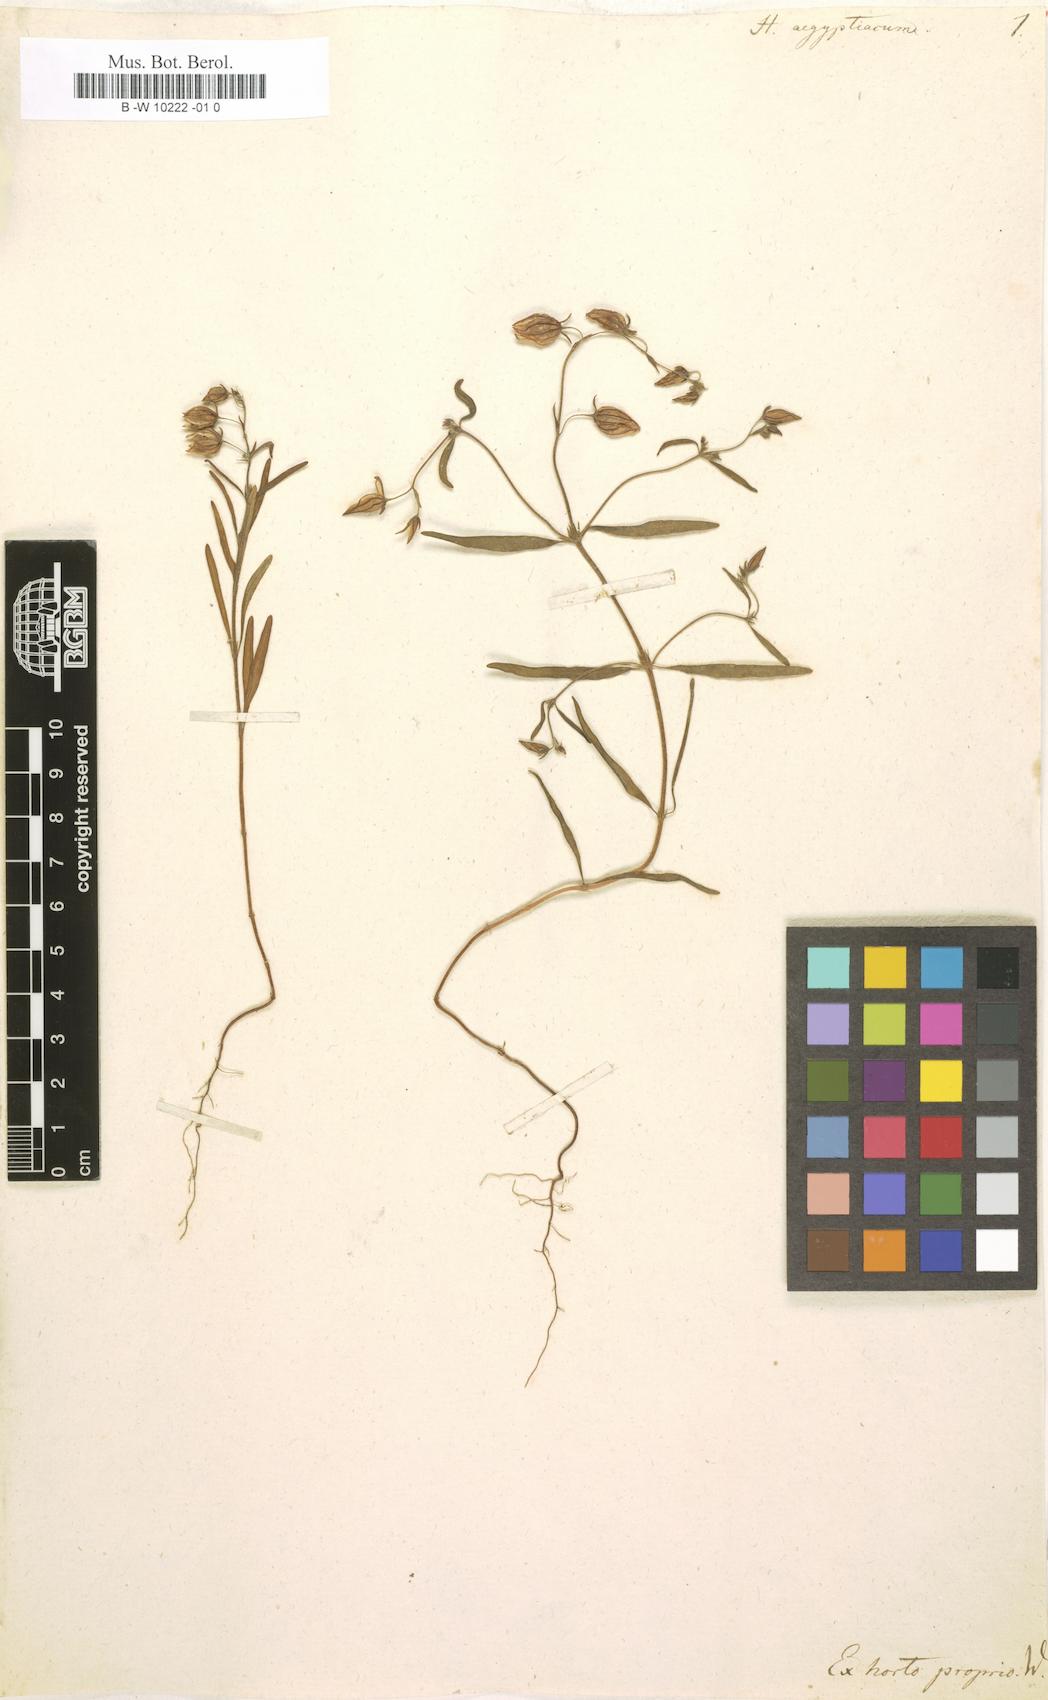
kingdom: Plantae
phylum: Tracheophyta
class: Magnoliopsida
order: Malvales
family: Cistaceae
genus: Helianthemum
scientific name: Helianthemum aegyptiacum
